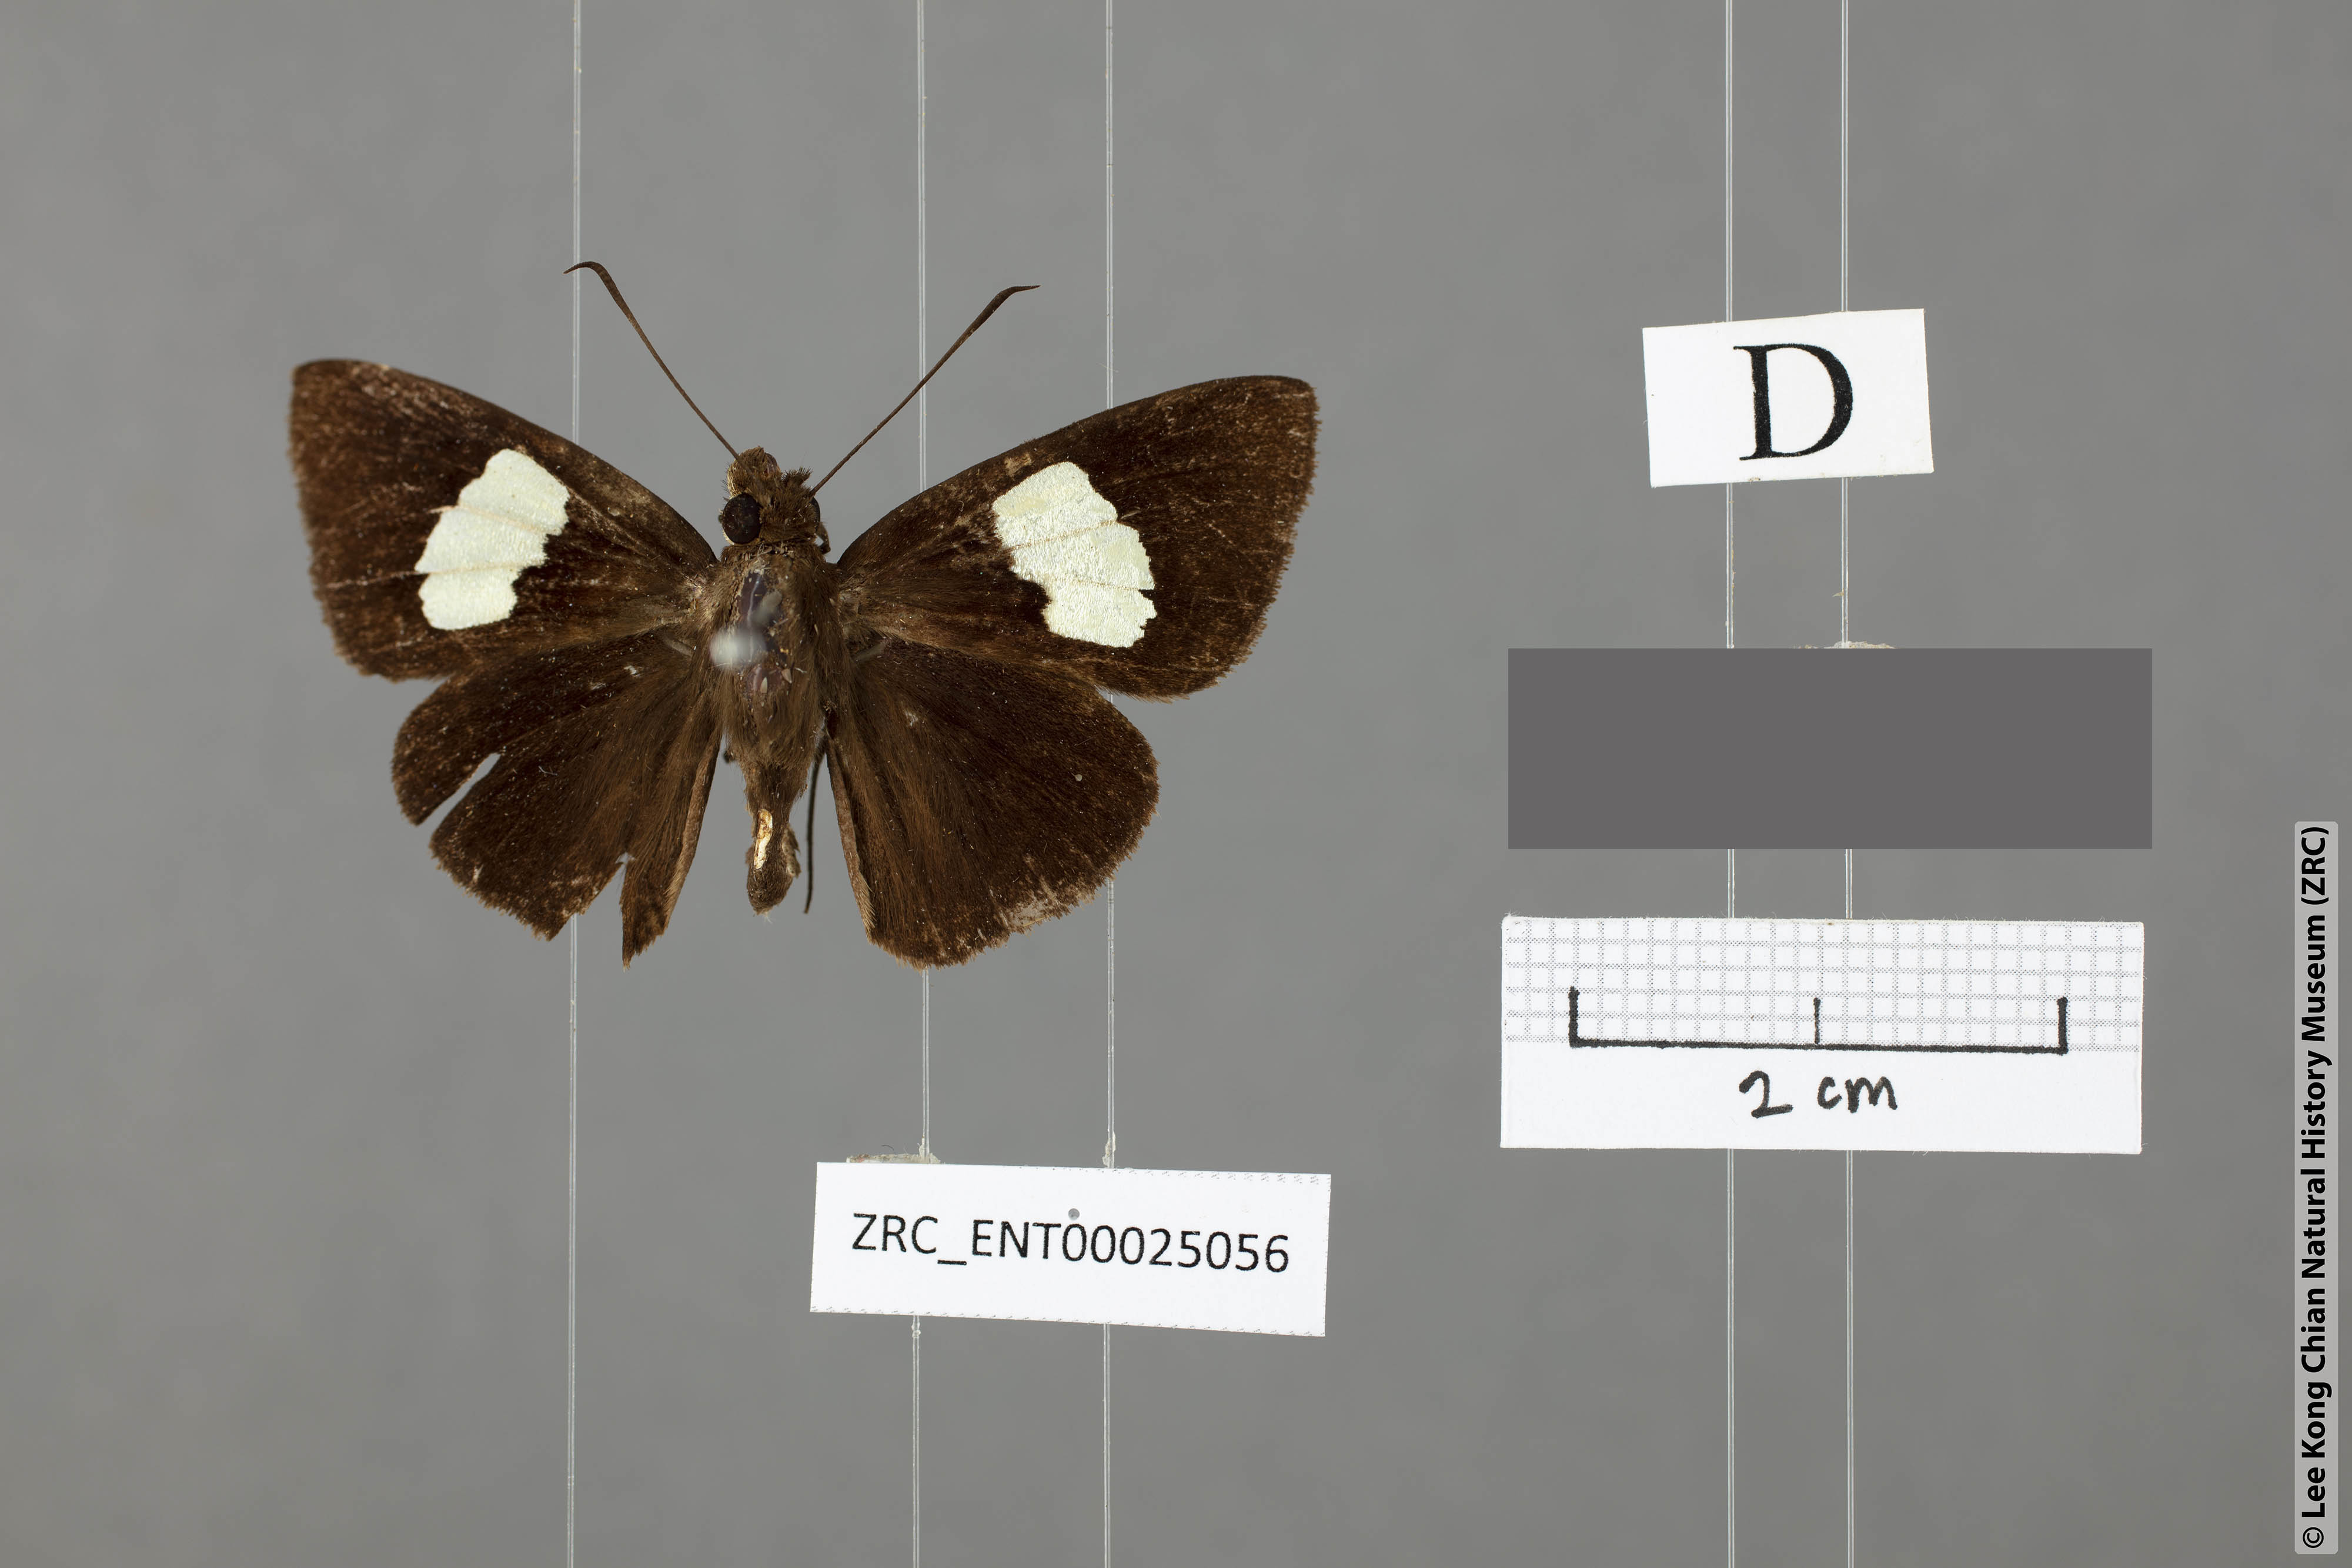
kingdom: Animalia
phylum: Arthropoda
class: Insecta
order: Lepidoptera
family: Hesperiidae
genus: Notocrypta
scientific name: Notocrypta quadrata
